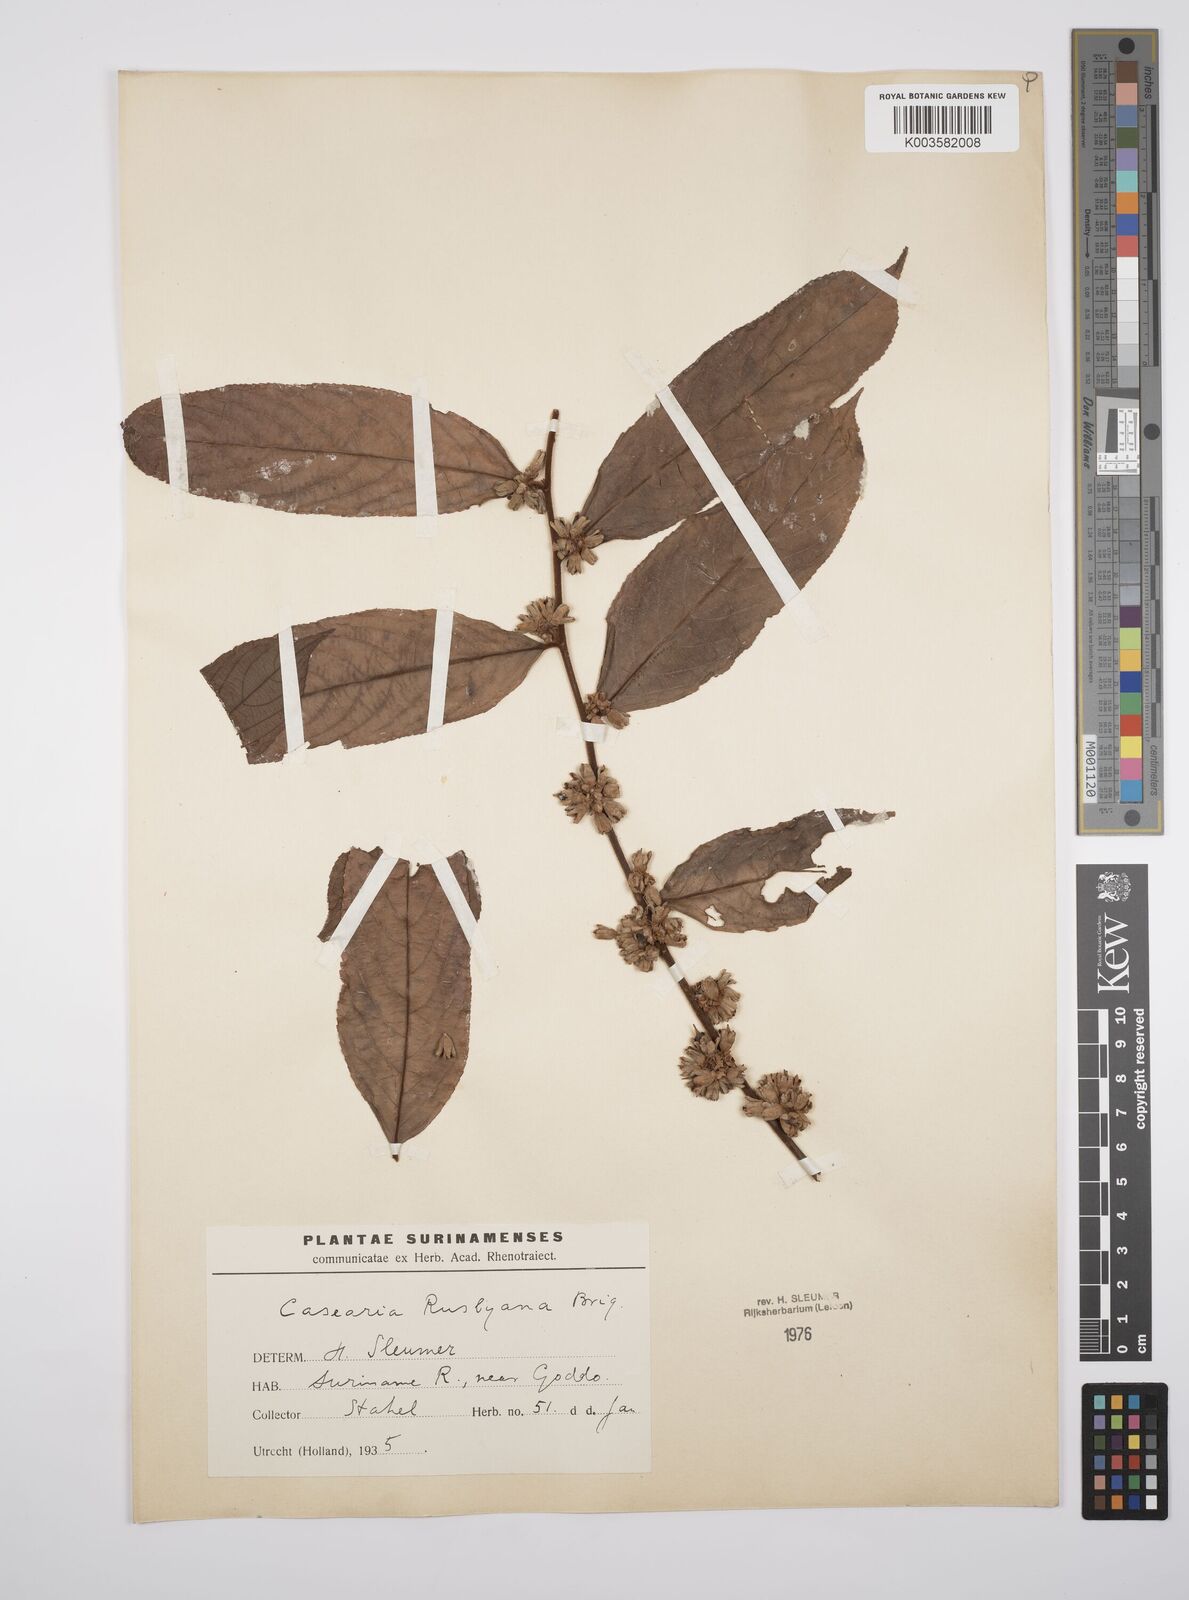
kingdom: Plantae
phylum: Tracheophyta
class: Magnoliopsida
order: Malpighiales
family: Salicaceae
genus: Casearia
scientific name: Casearia rusbyana
